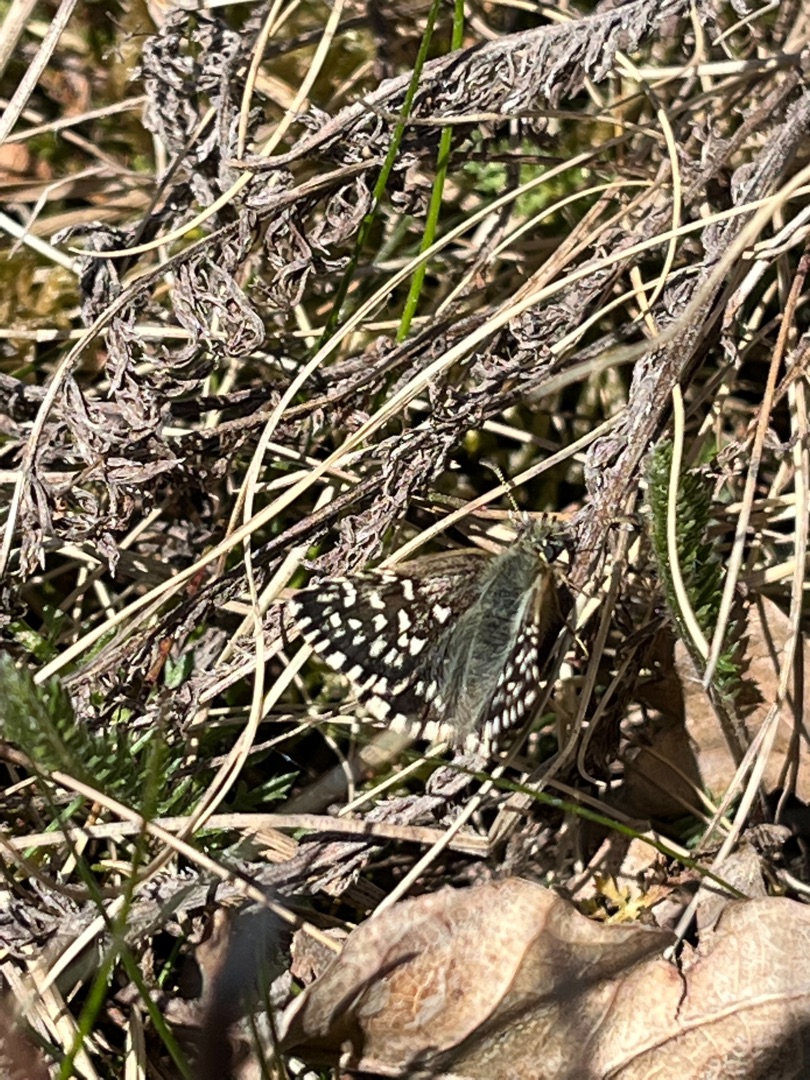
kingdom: Animalia
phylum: Arthropoda
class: Insecta
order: Lepidoptera
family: Hesperiidae
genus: Pyrgus
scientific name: Pyrgus malvae
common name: Spættet bredpande
